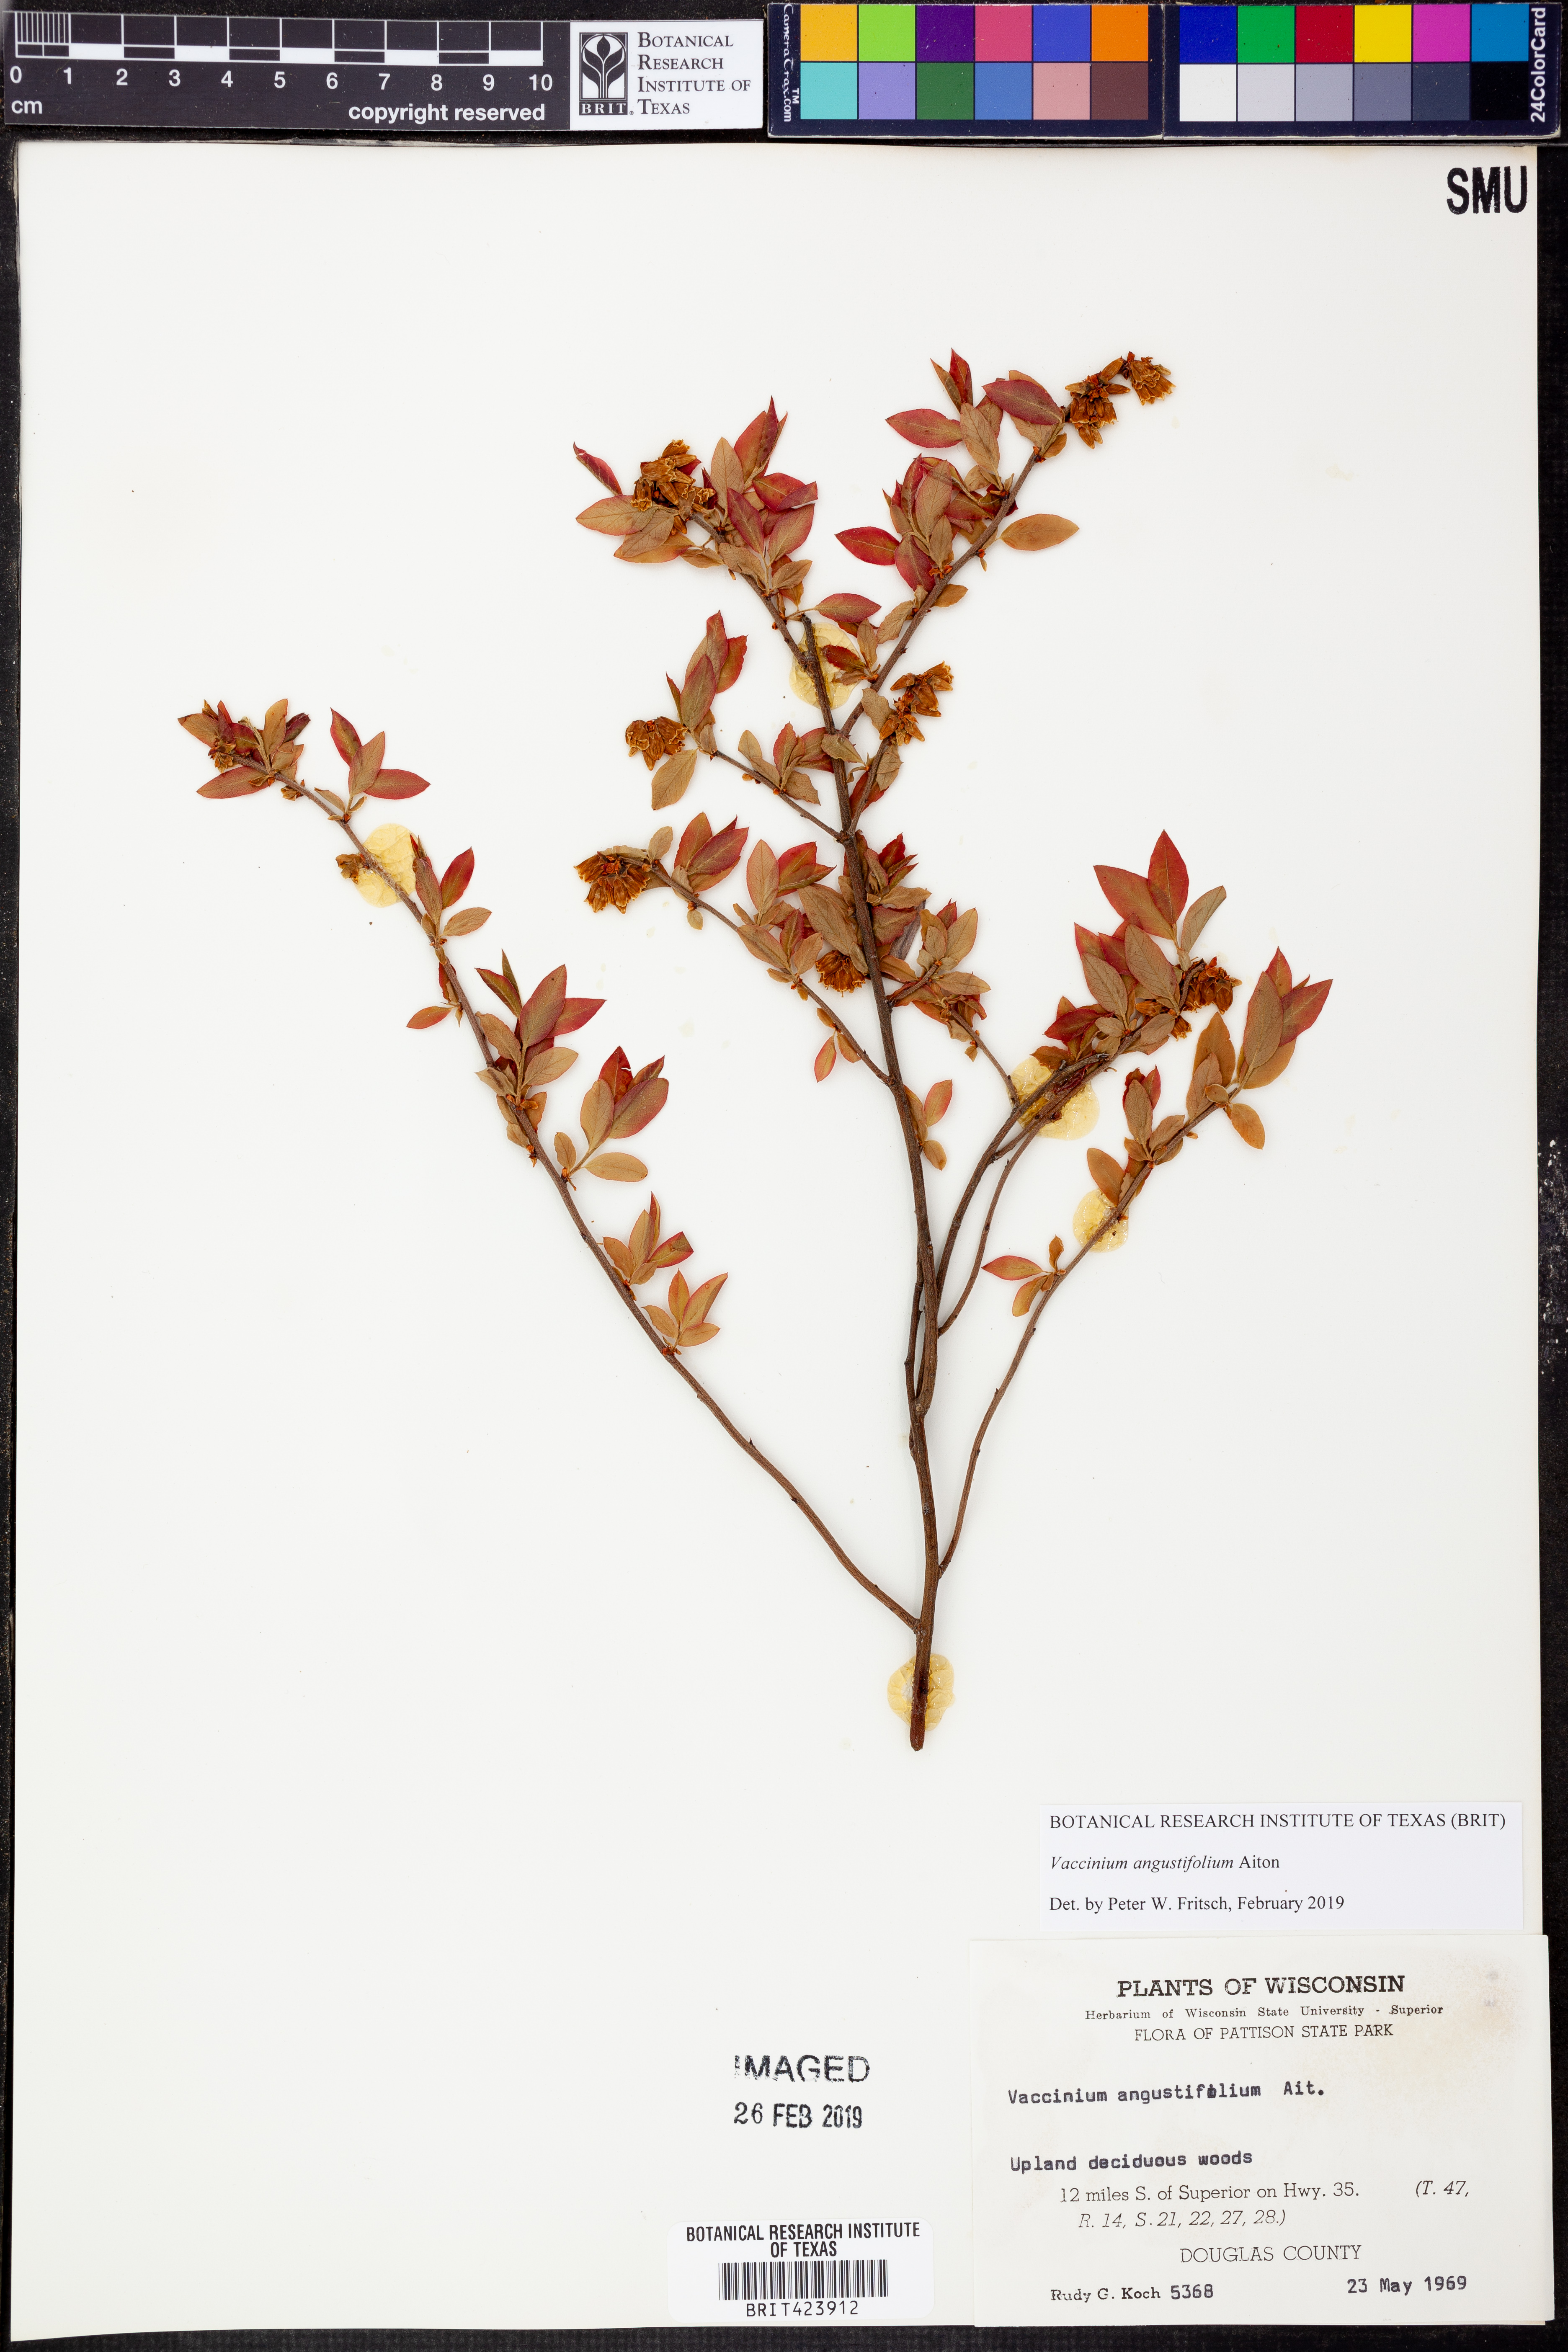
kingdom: Plantae
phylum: Tracheophyta
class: Magnoliopsida
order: Ericales
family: Ericaceae
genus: Vaccinium
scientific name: Vaccinium angustifolium
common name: Early lowbush blueberry
